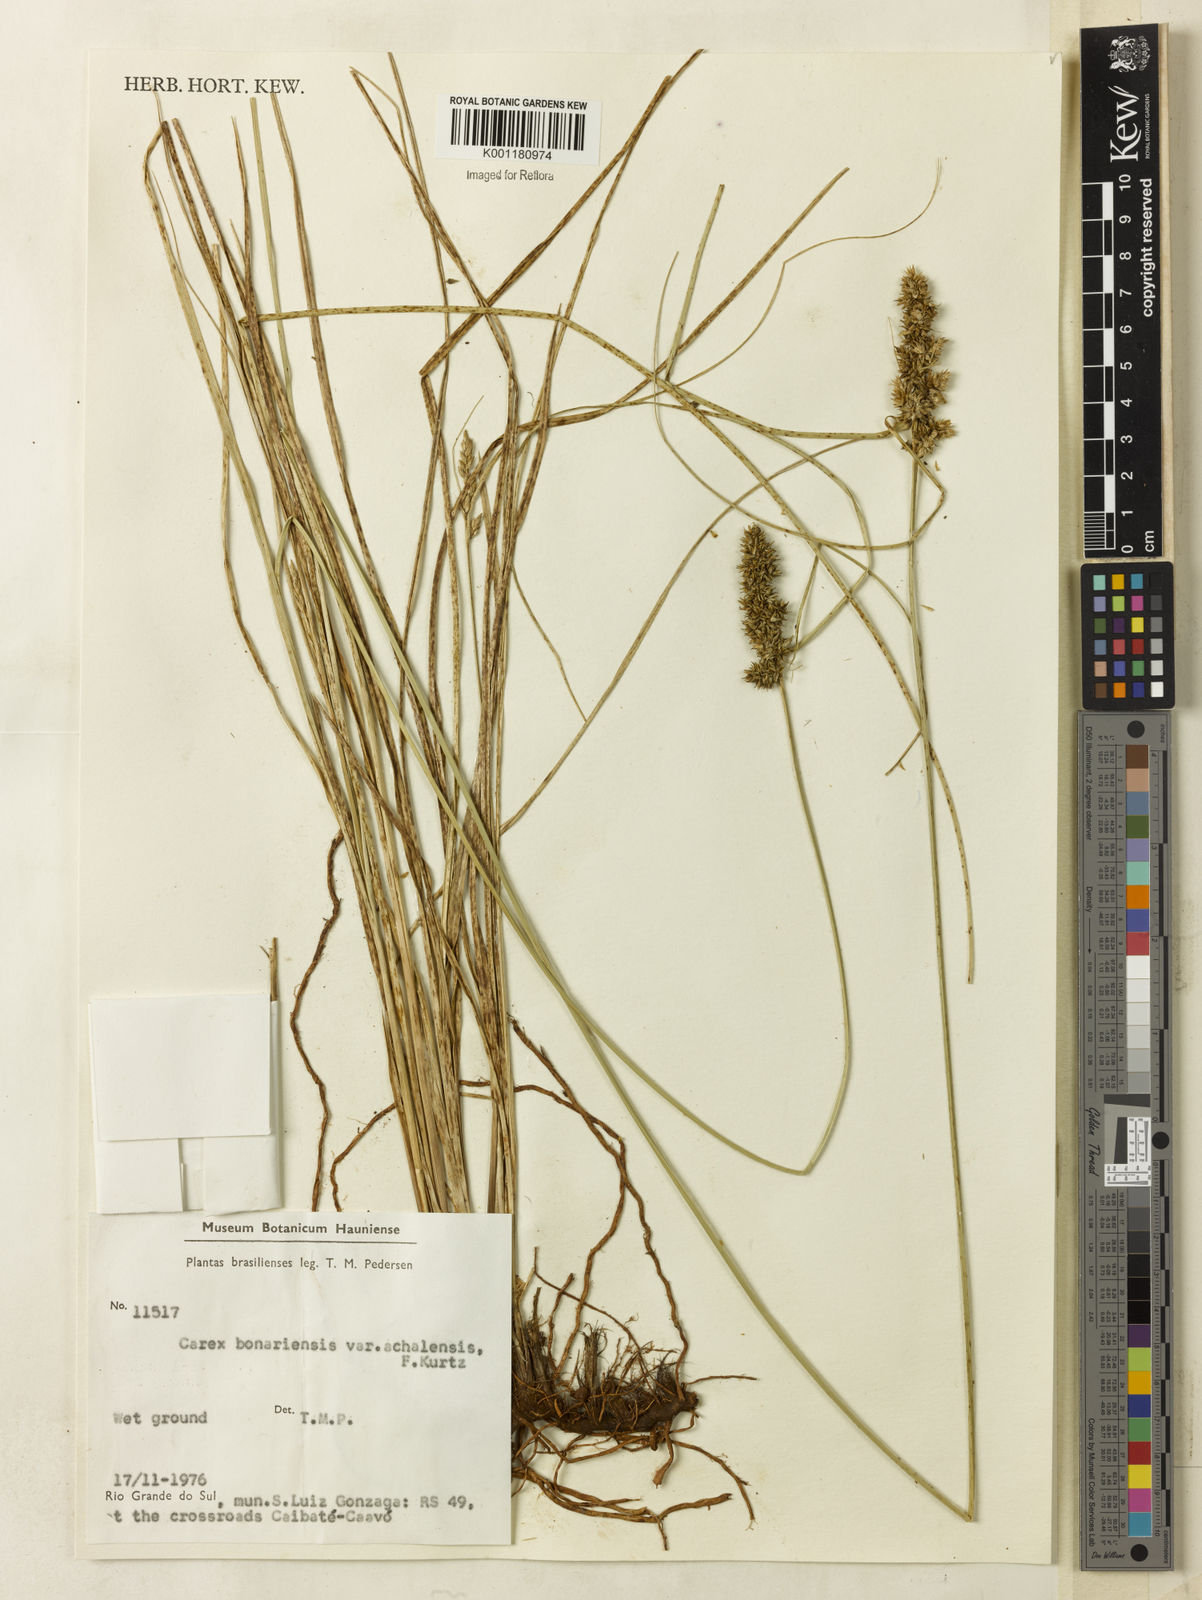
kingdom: Plantae
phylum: Tracheophyta
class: Liliopsida
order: Poales
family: Cyperaceae
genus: Carex
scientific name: Carex bonariensis
